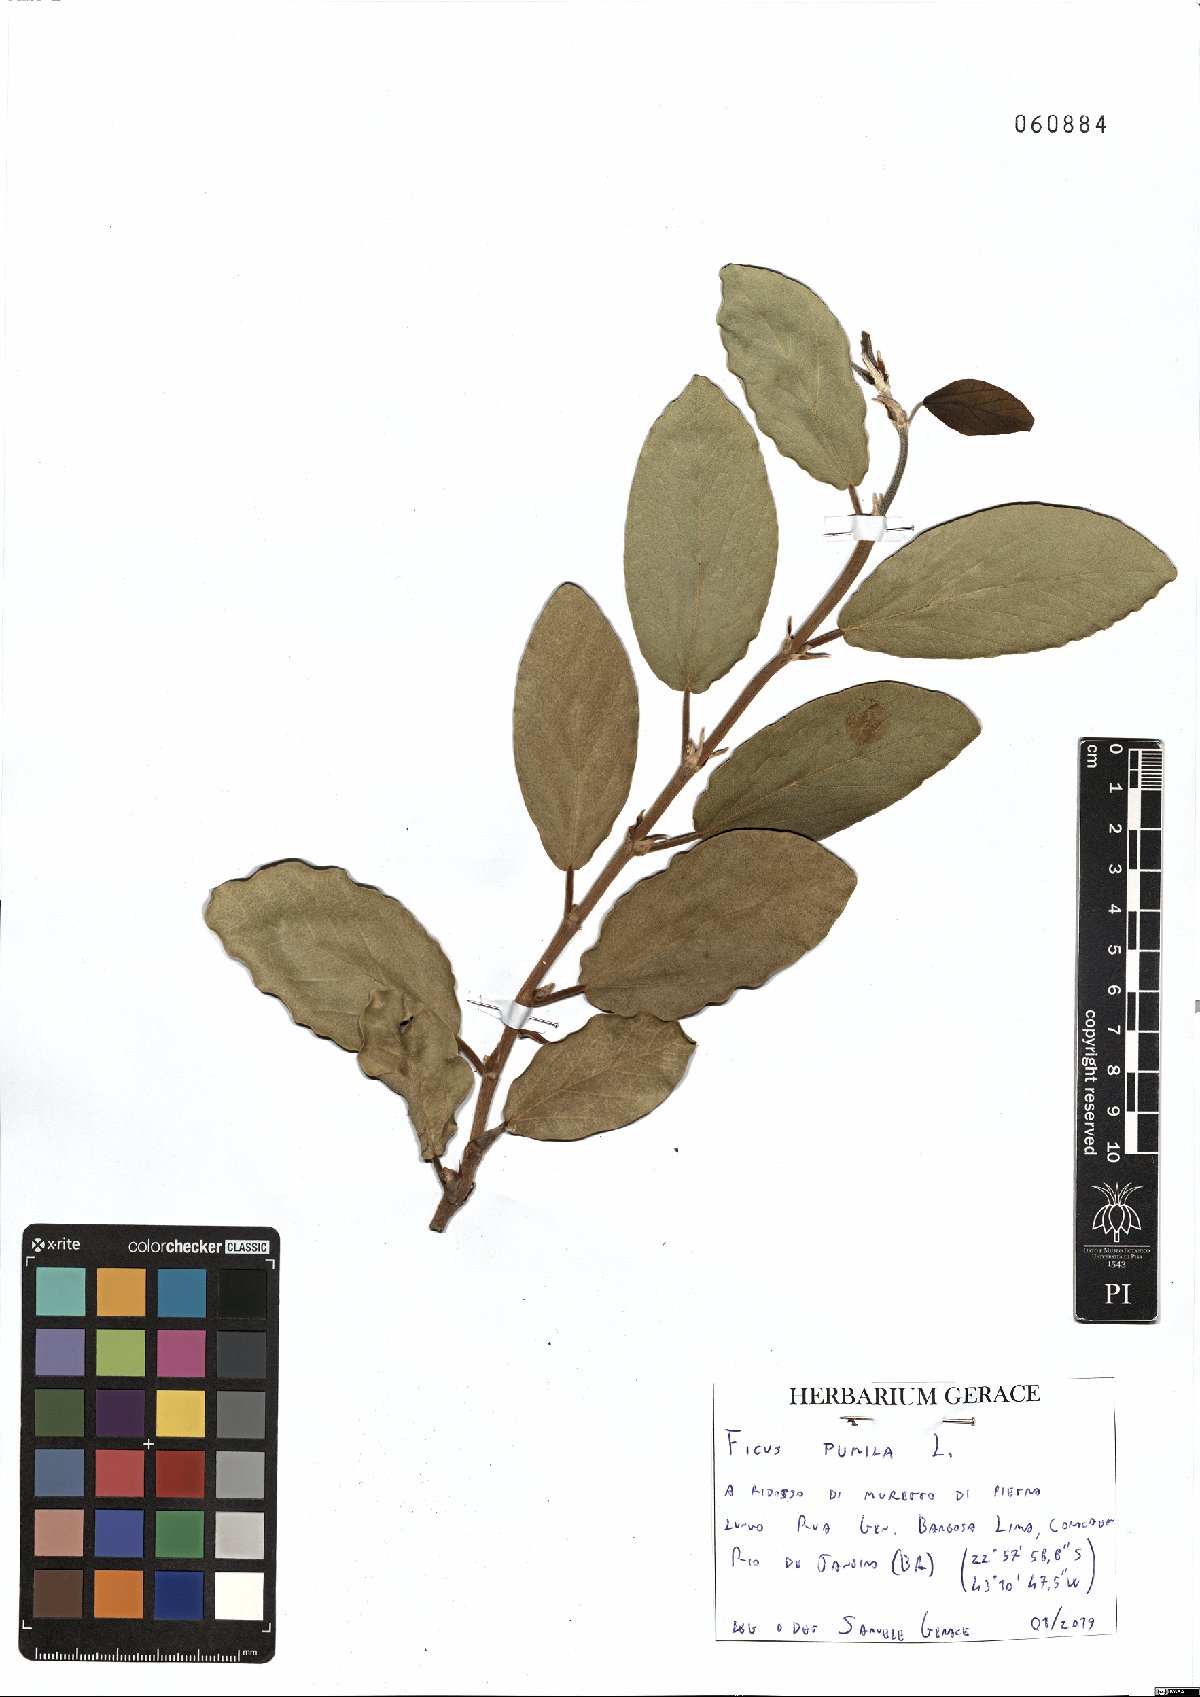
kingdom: Plantae
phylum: Tracheophyta
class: Magnoliopsida
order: Rosales
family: Moraceae
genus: Ficus
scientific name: Ficus pumila
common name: Climbingfig
